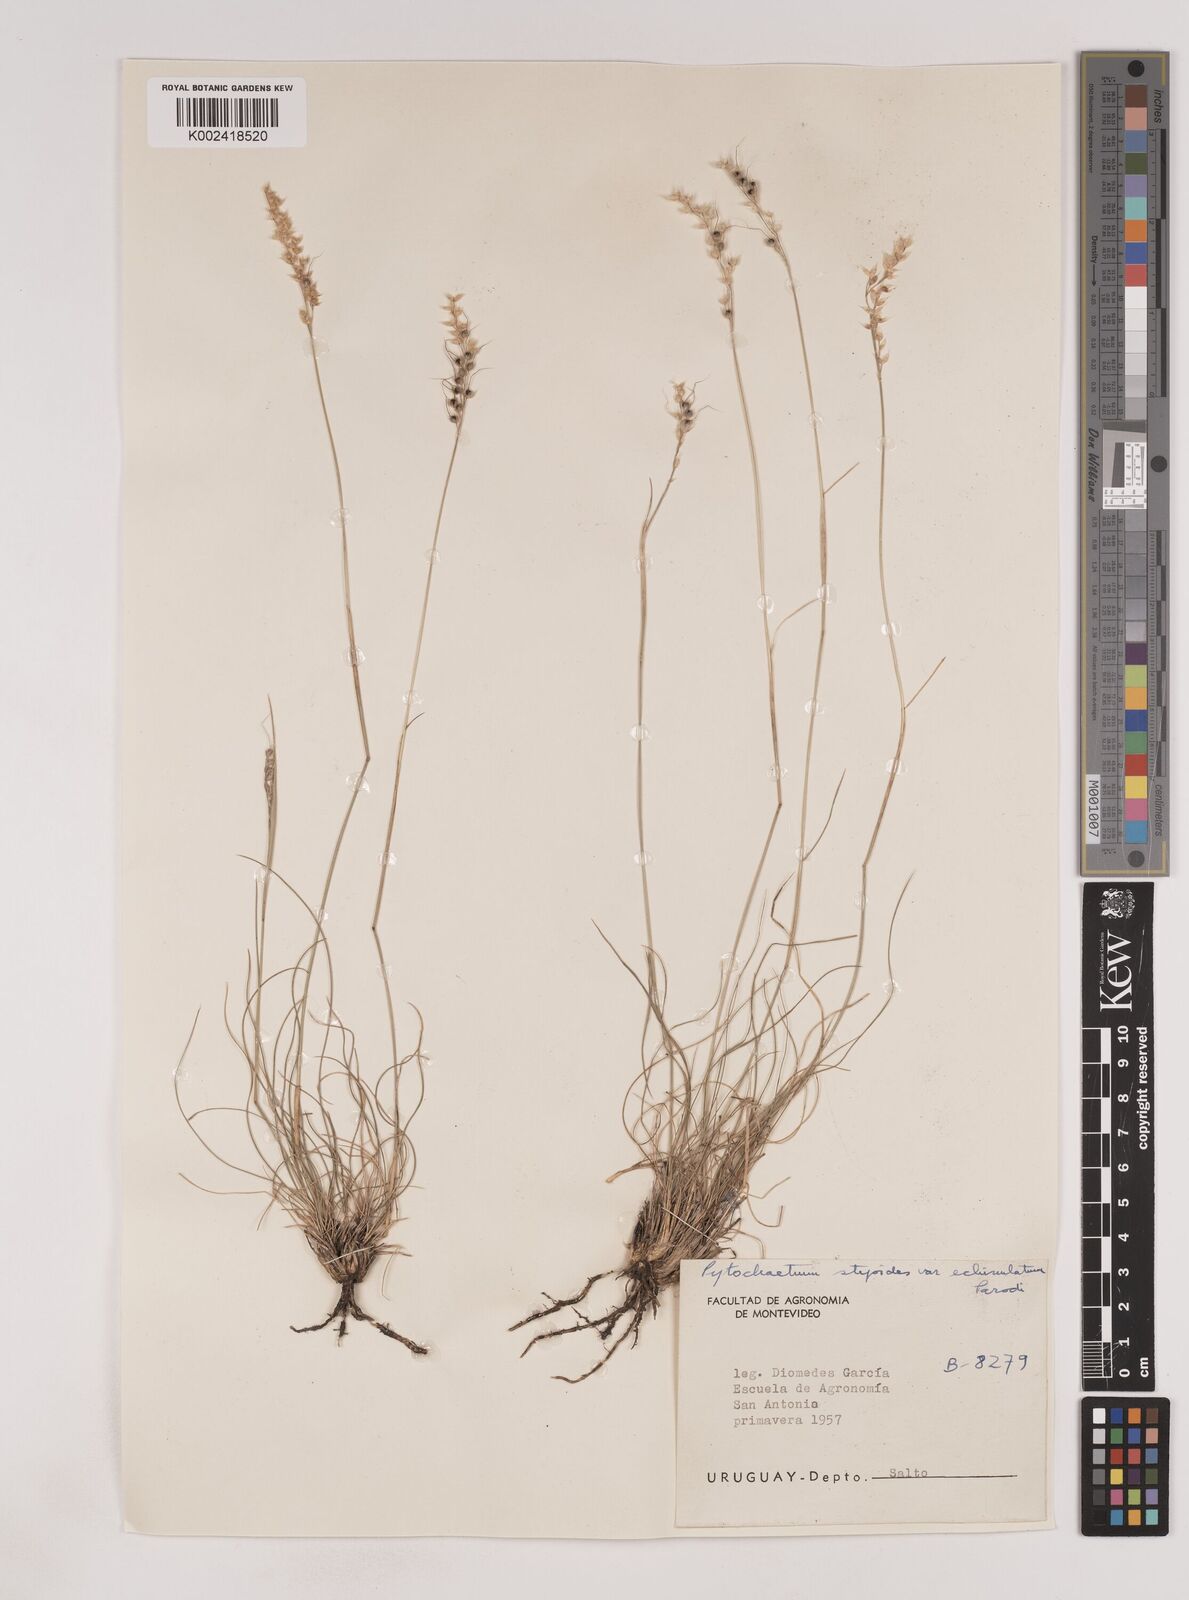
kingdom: Plantae
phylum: Tracheophyta
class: Liliopsida
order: Poales
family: Poaceae
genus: Piptochaetium
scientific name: Piptochaetium stipoides
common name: Purple speargrass
